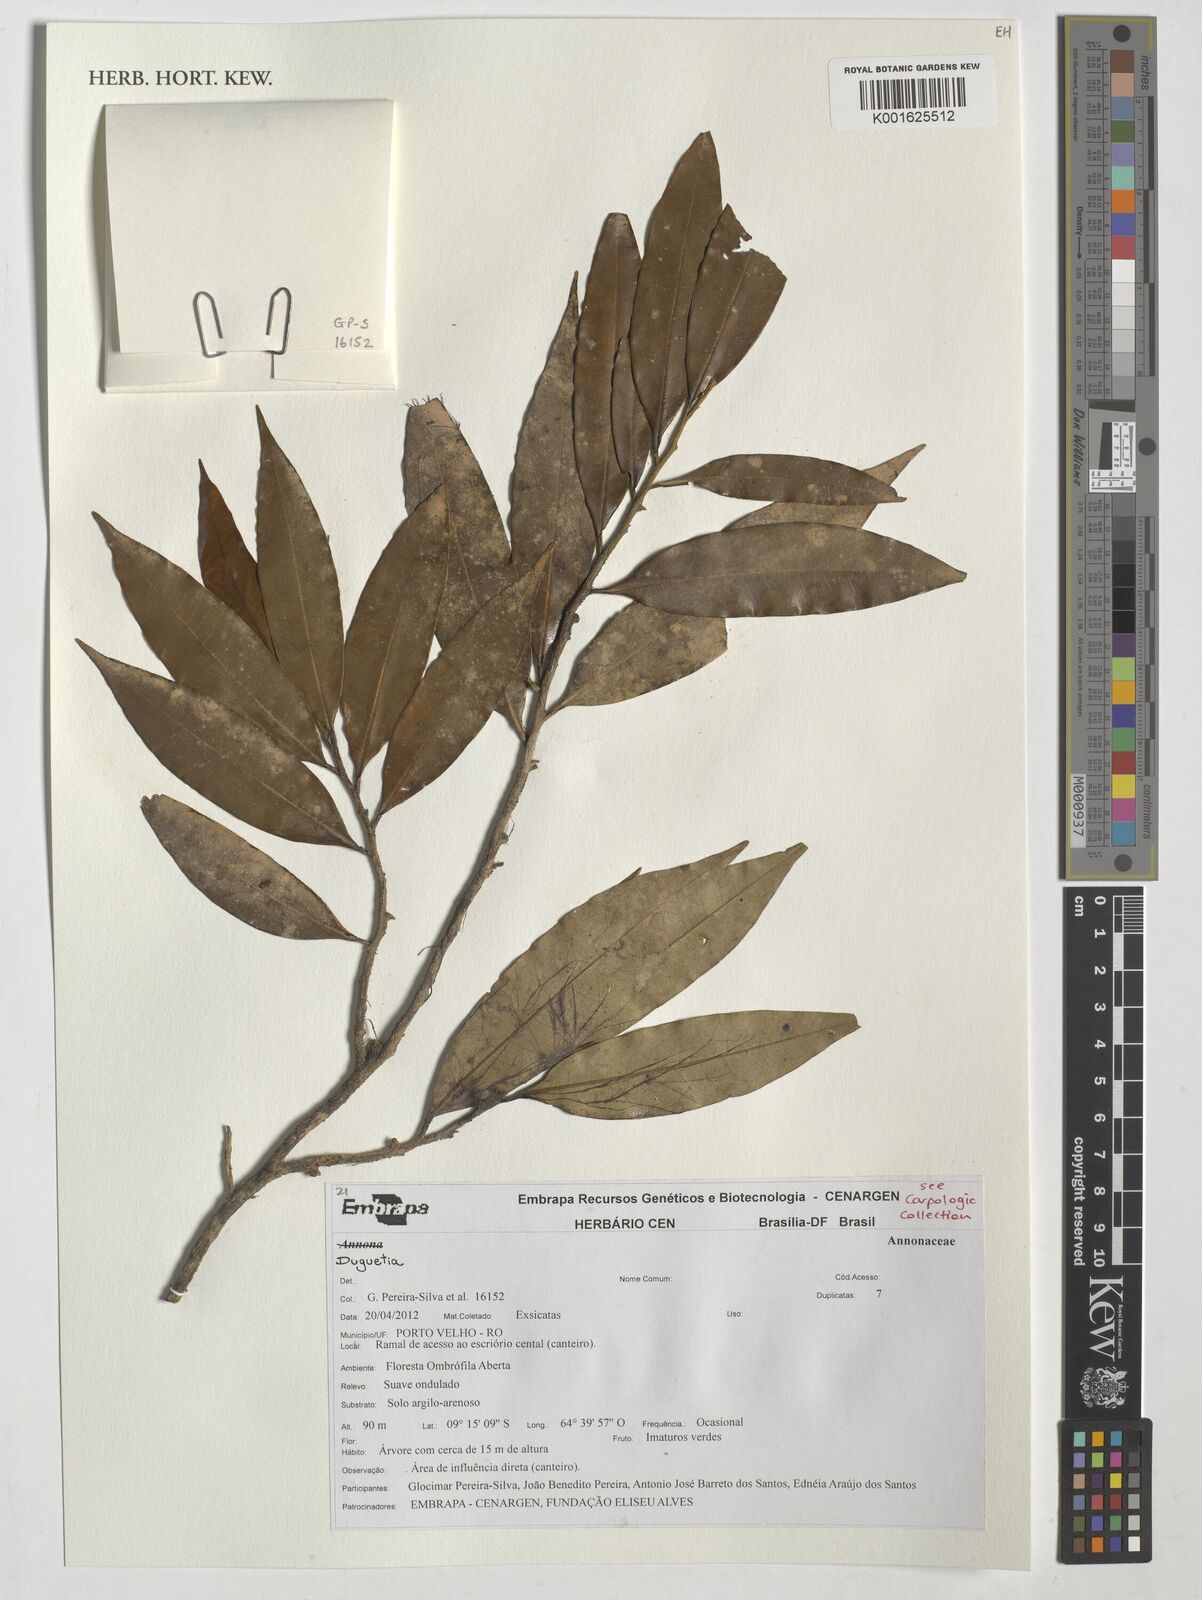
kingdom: Plantae
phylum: Tracheophyta
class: Magnoliopsida
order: Magnoliales
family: Annonaceae
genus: Duguetia
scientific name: Duguetia
